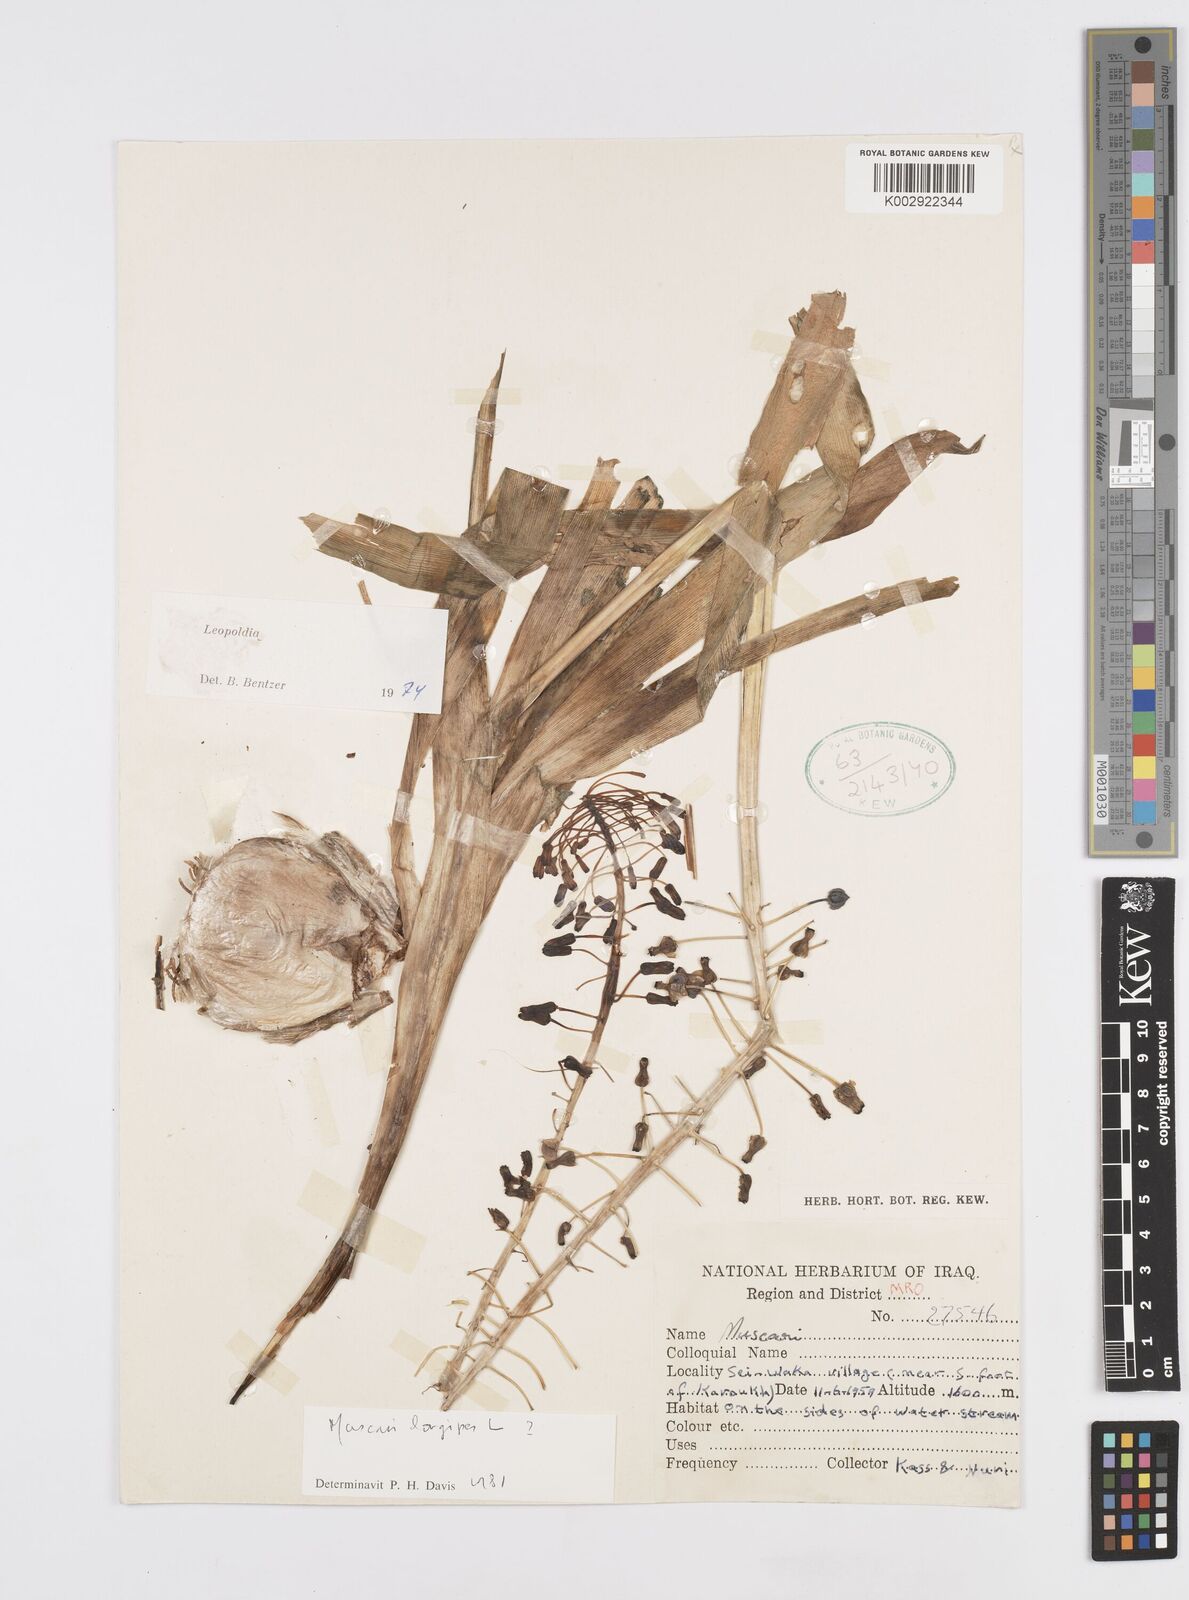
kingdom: Plantae
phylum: Tracheophyta
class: Liliopsida
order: Asparagales
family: Asparagaceae
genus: Muscari
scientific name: Muscari longipes
